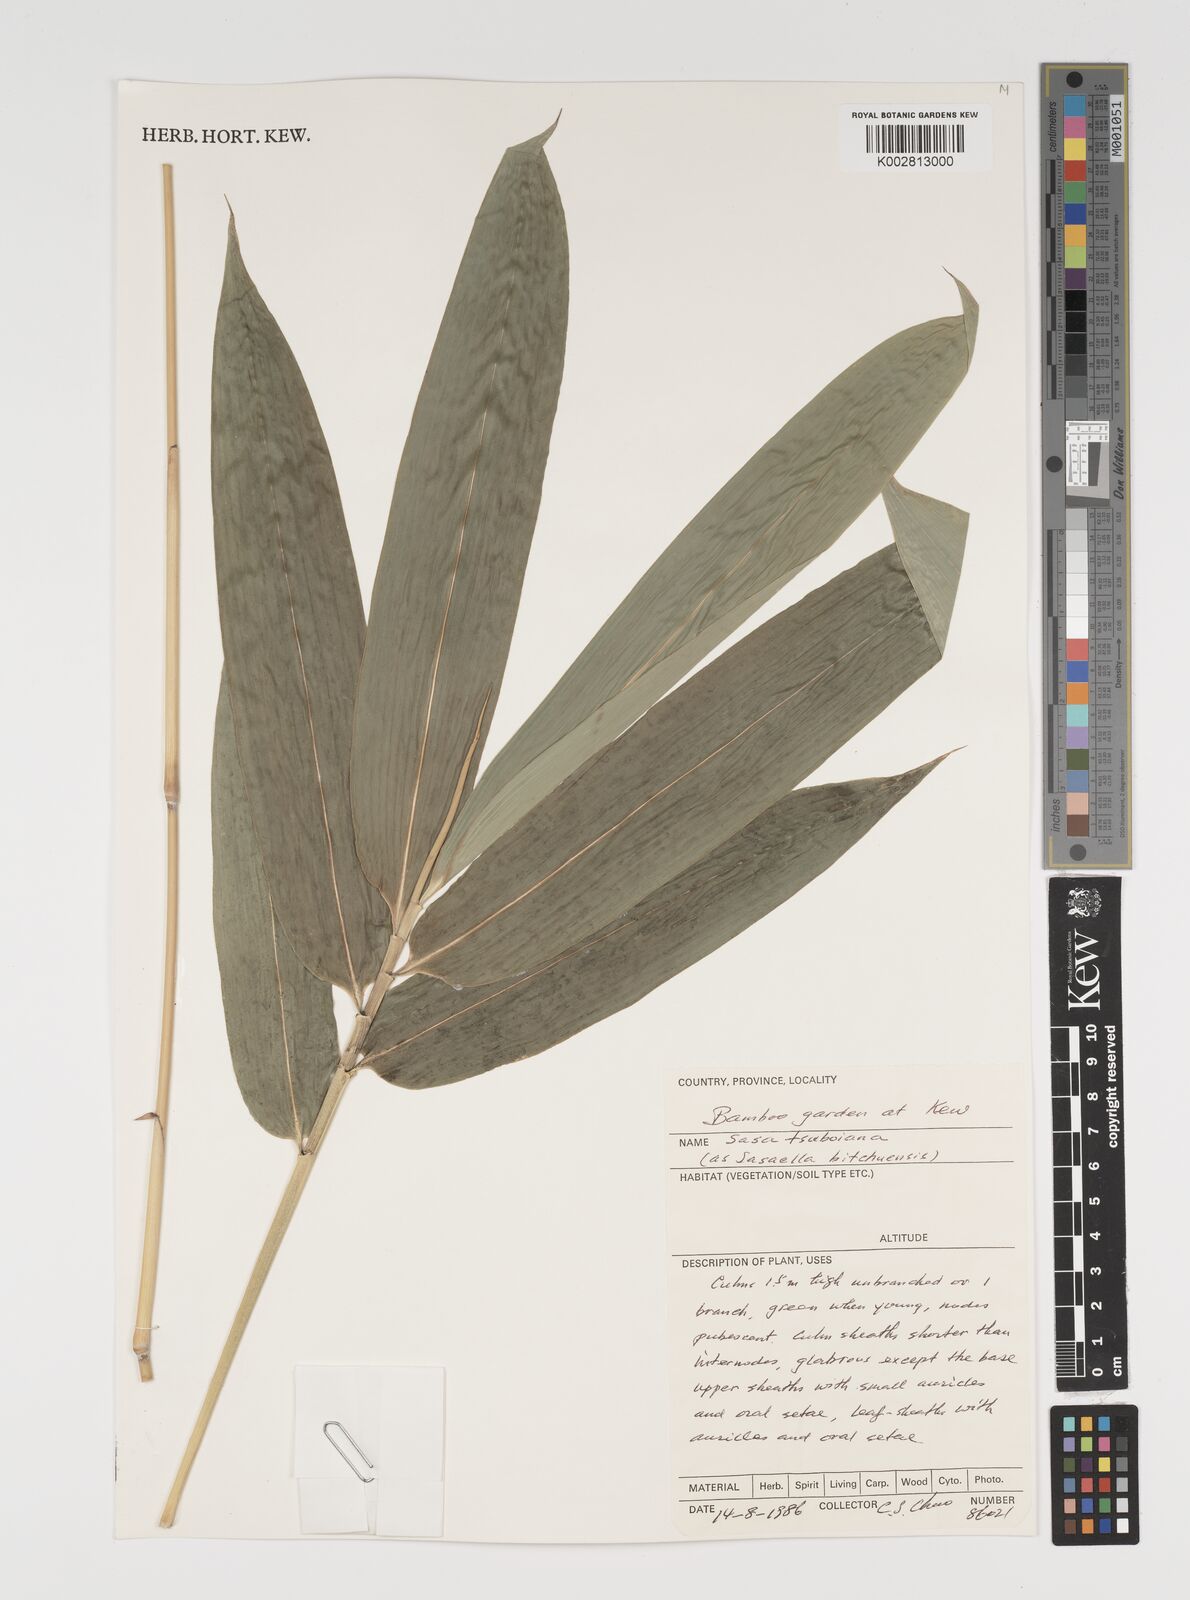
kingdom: Plantae
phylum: Tracheophyta
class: Liliopsida
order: Poales
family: Poaceae
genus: Sasa
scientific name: Sasa tsuboiana
